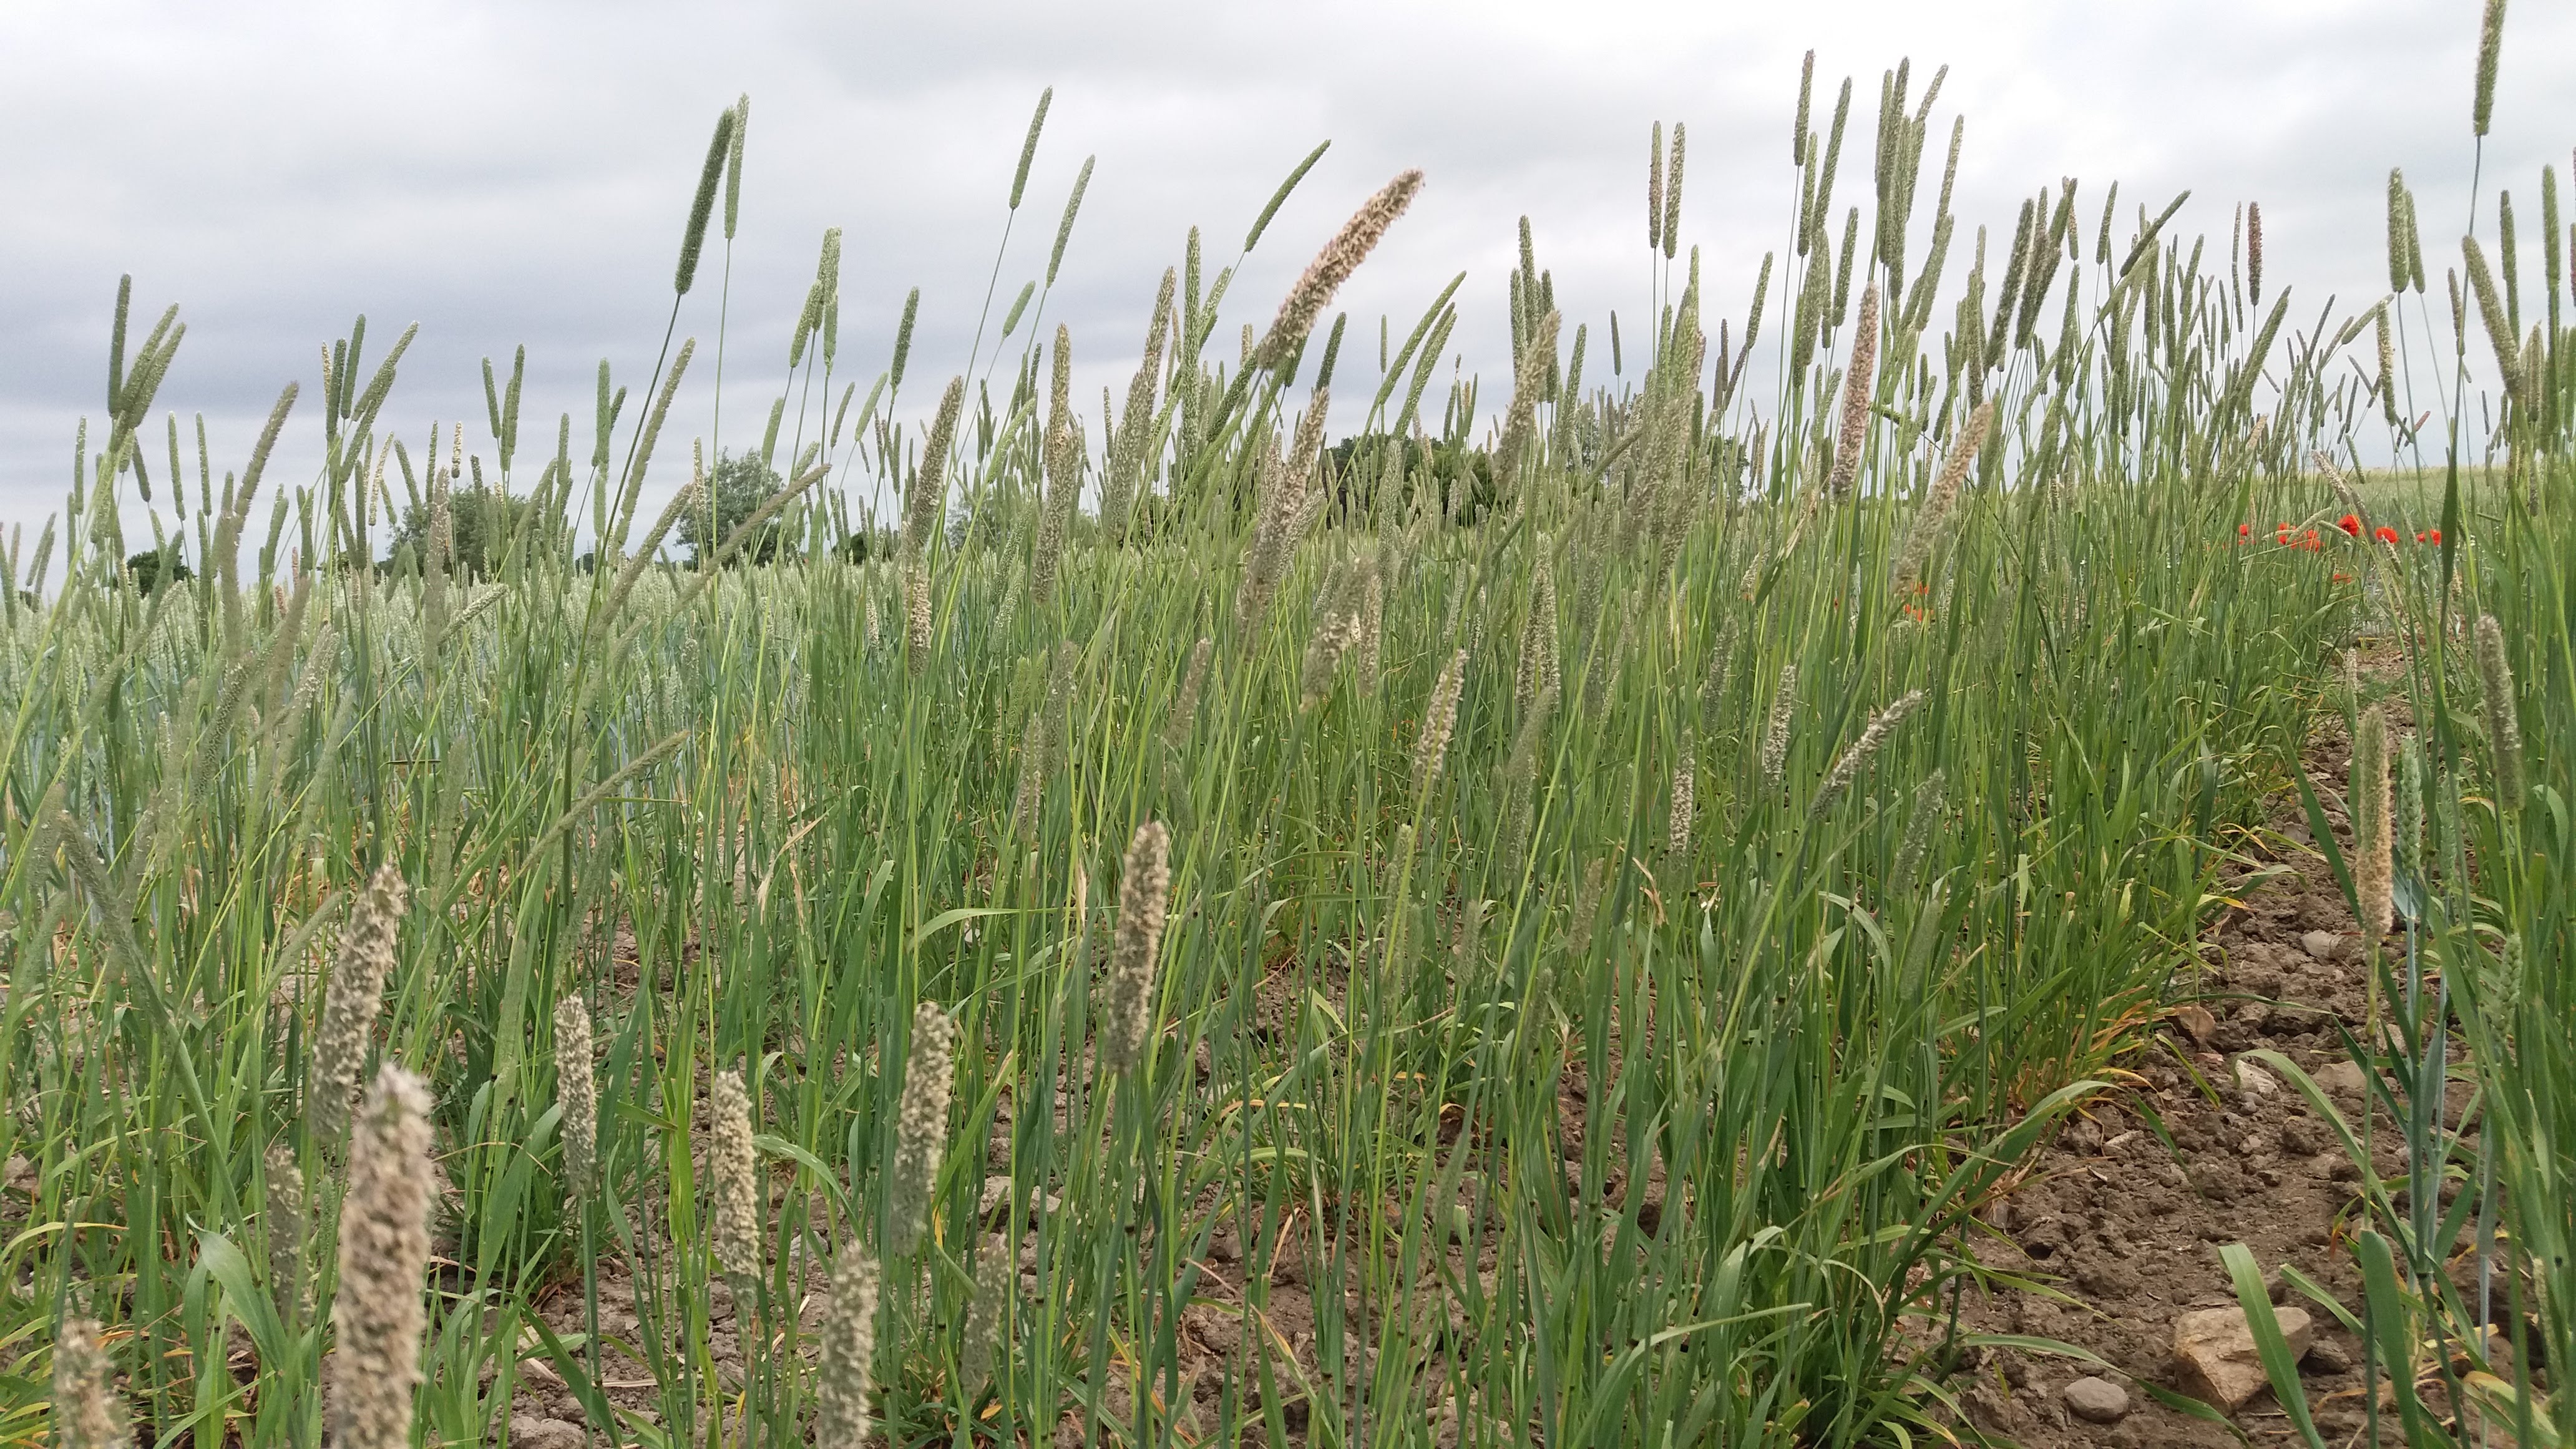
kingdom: Plantae
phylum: Tracheophyta
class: Liliopsida
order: Poales
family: Poaceae
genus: Phleum
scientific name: Phleum pratense
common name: Timothy grass
